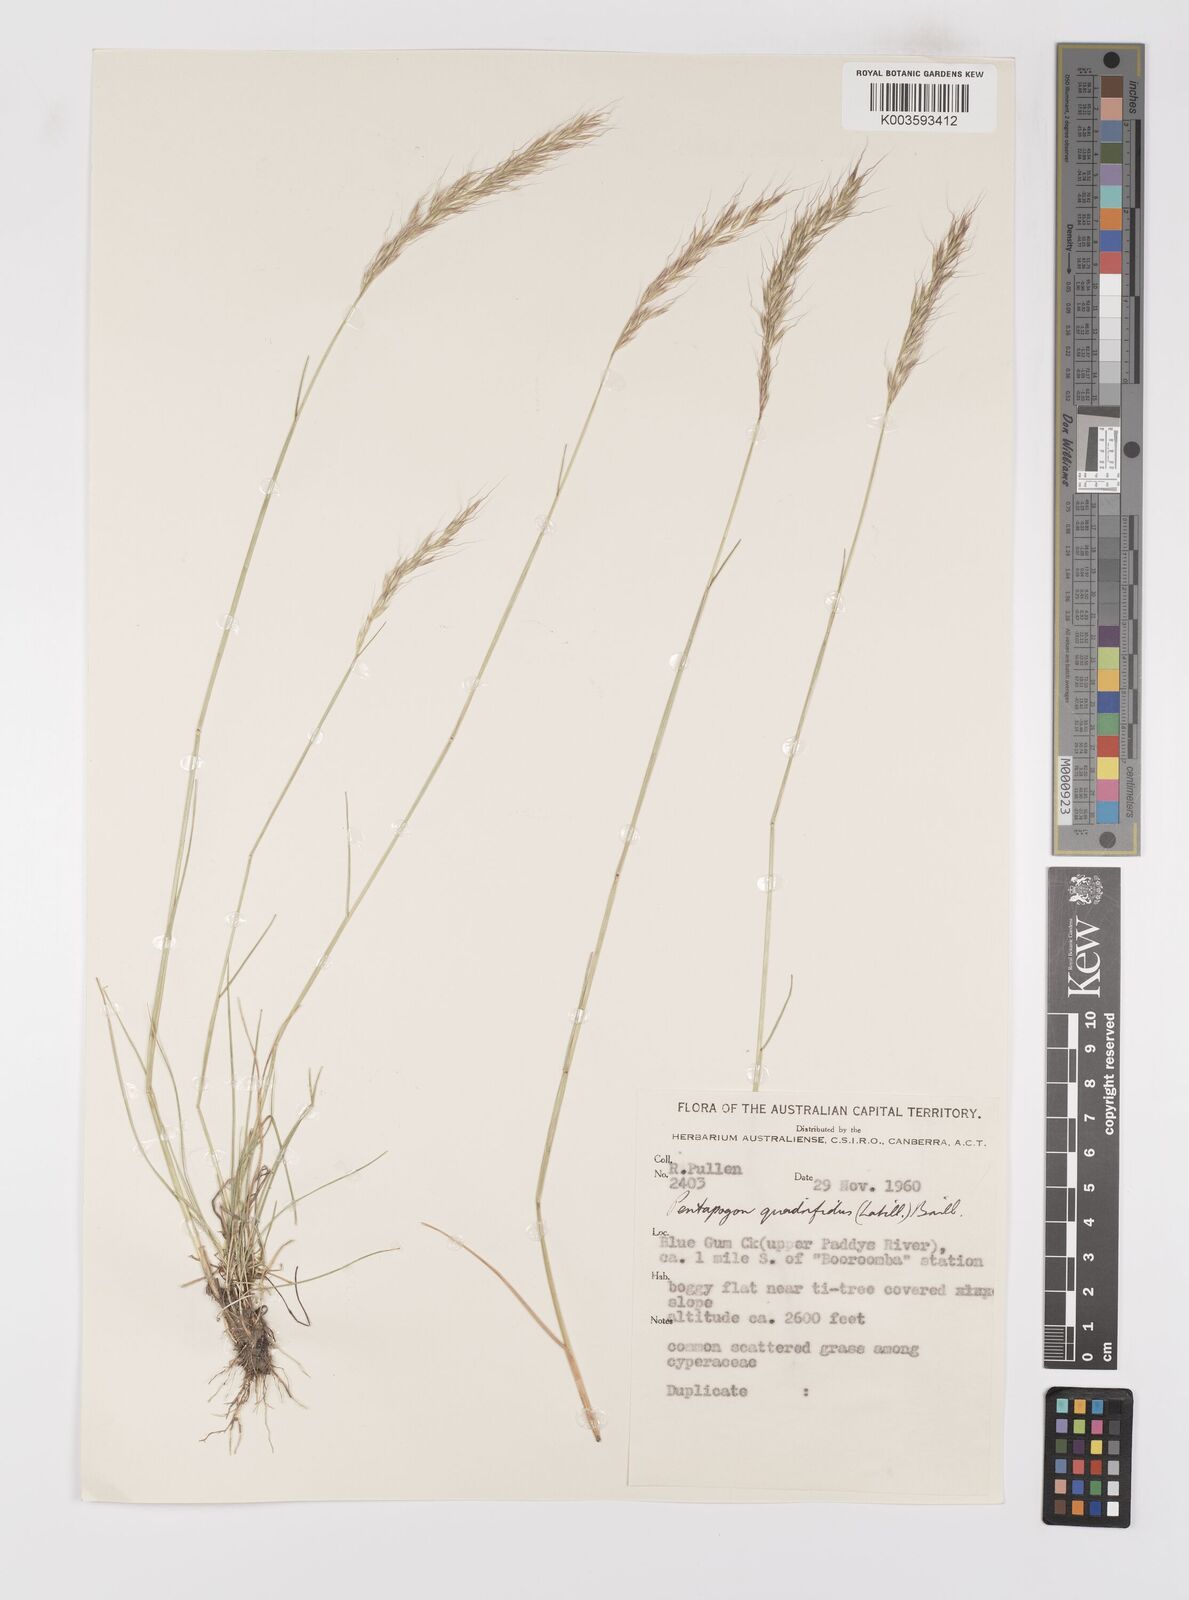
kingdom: Plantae
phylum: Tracheophyta
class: Liliopsida
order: Poales
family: Poaceae
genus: Pentapogon
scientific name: Pentapogon quadrifidus
